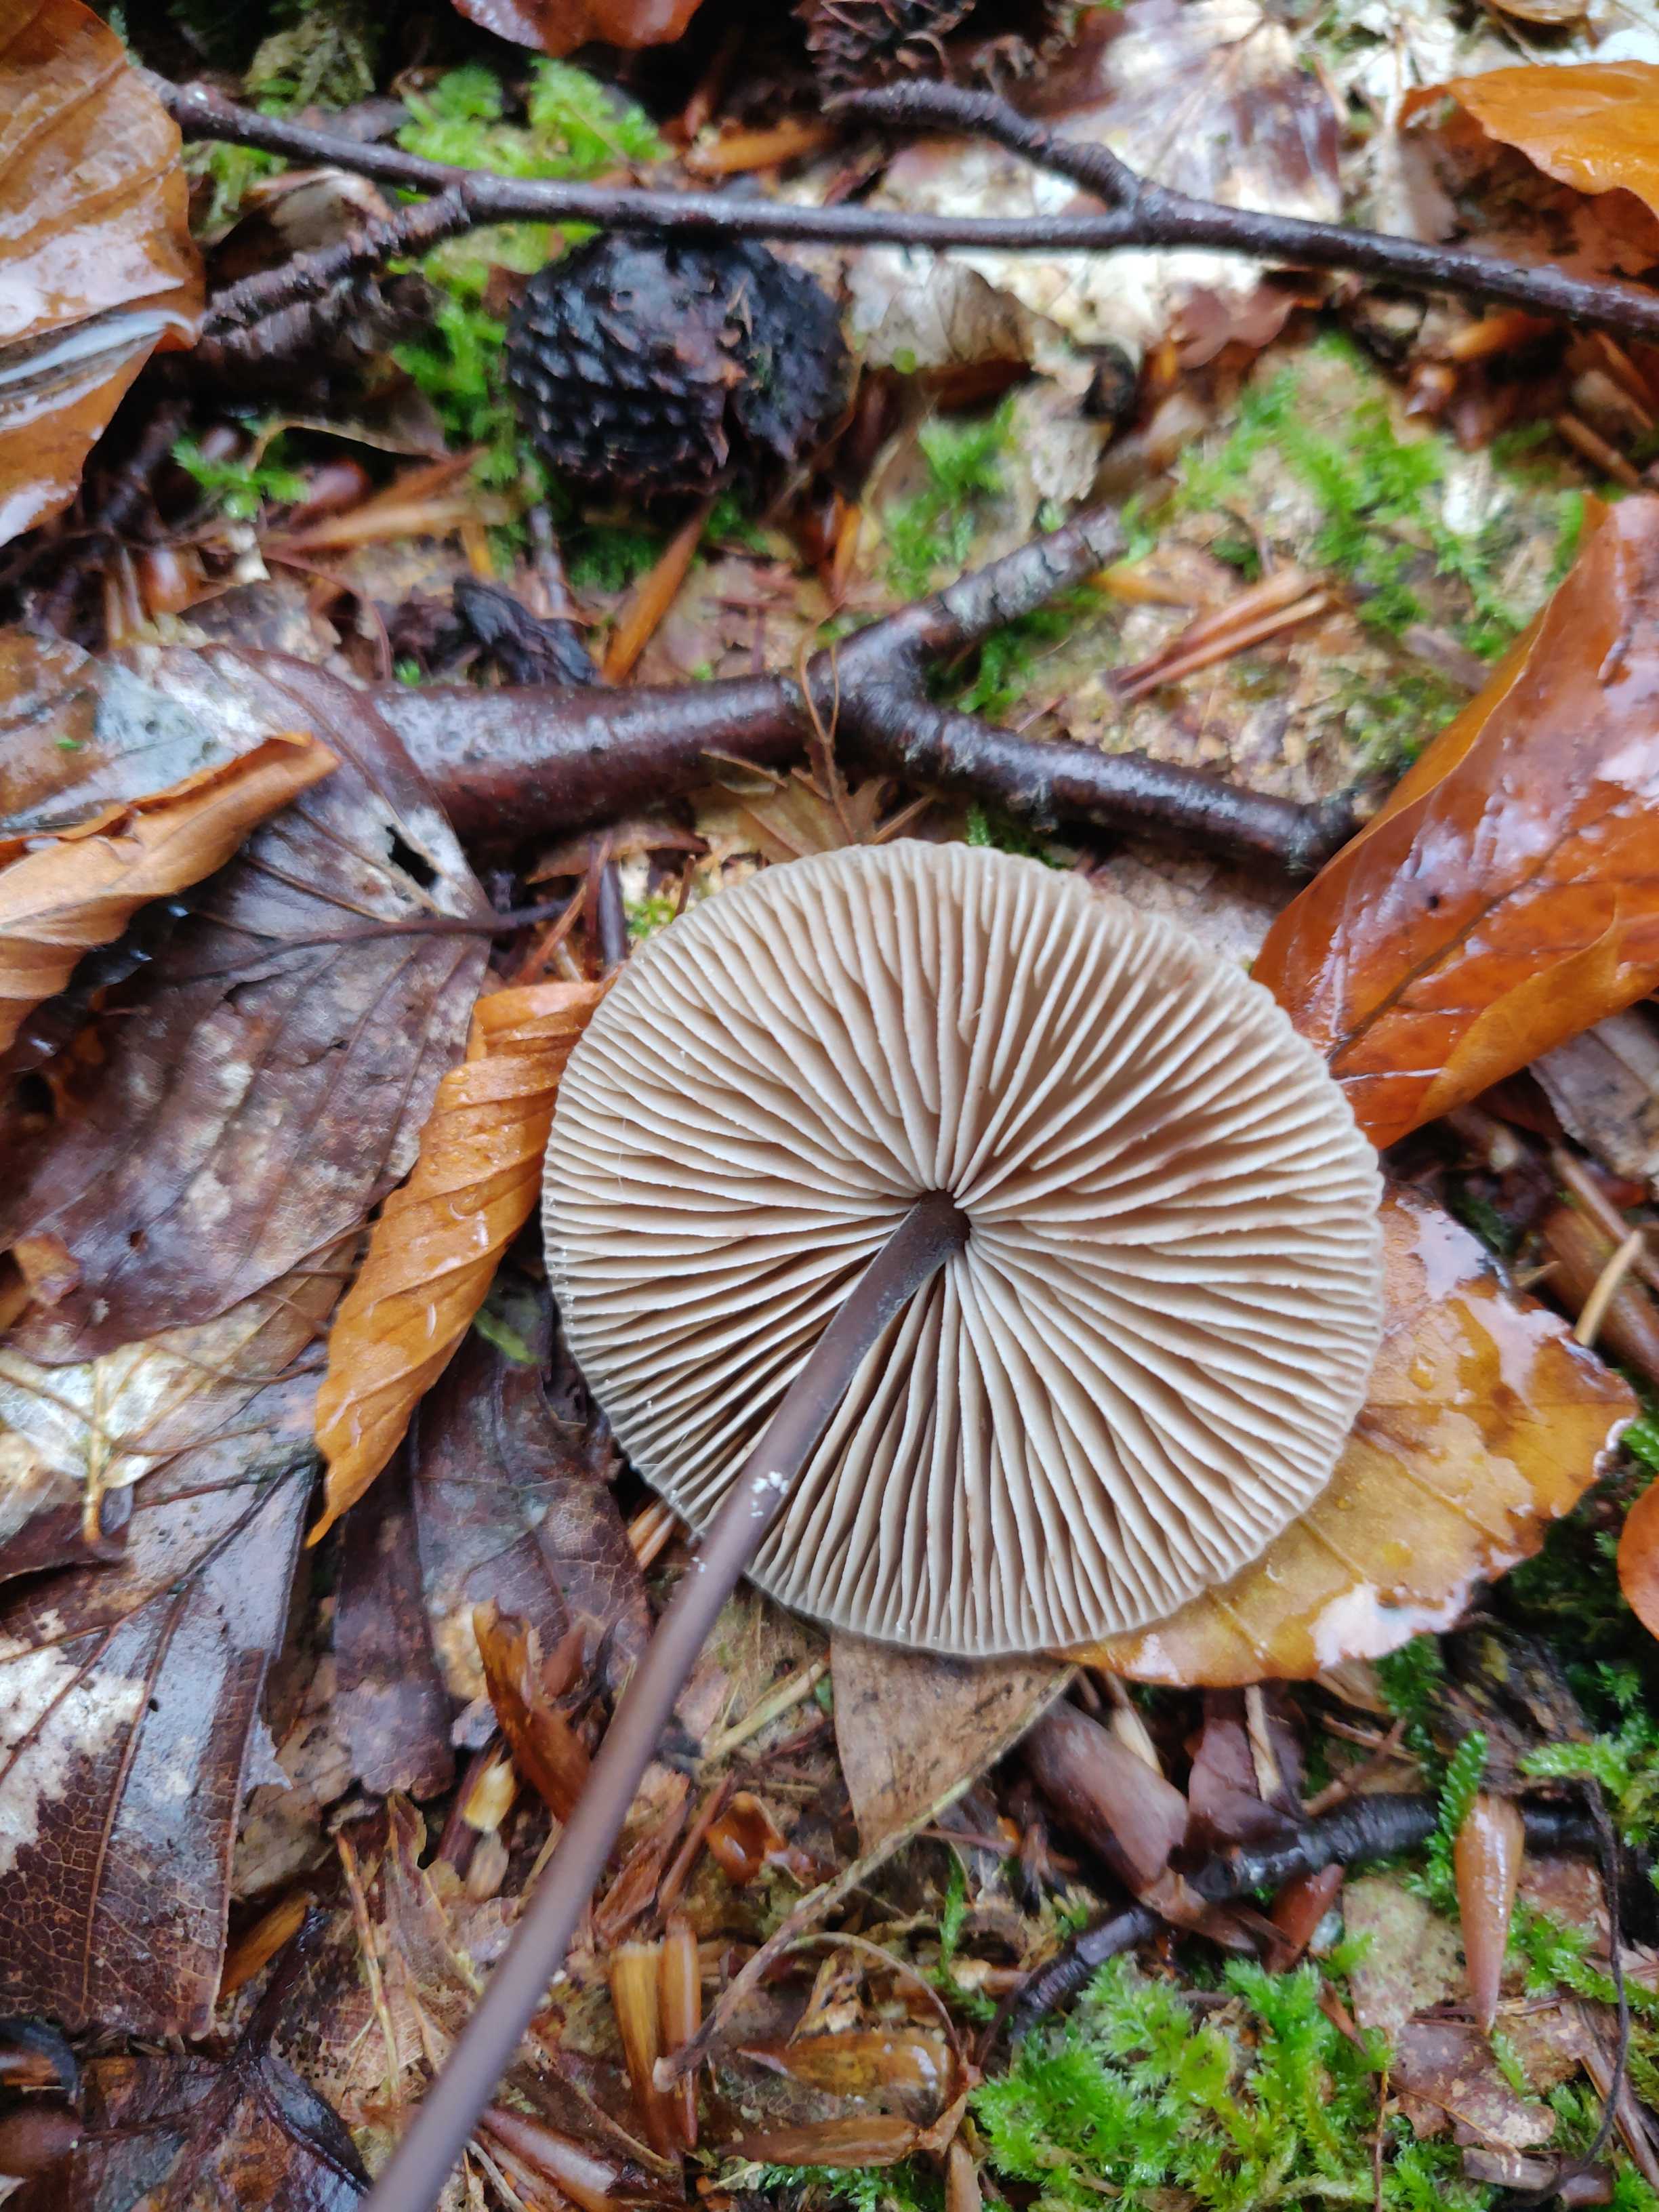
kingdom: Fungi
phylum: Basidiomycota
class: Agaricomycetes
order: Agaricales
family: Omphalotaceae
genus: Mycetinis
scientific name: Mycetinis alliaceus
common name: stor løghat
